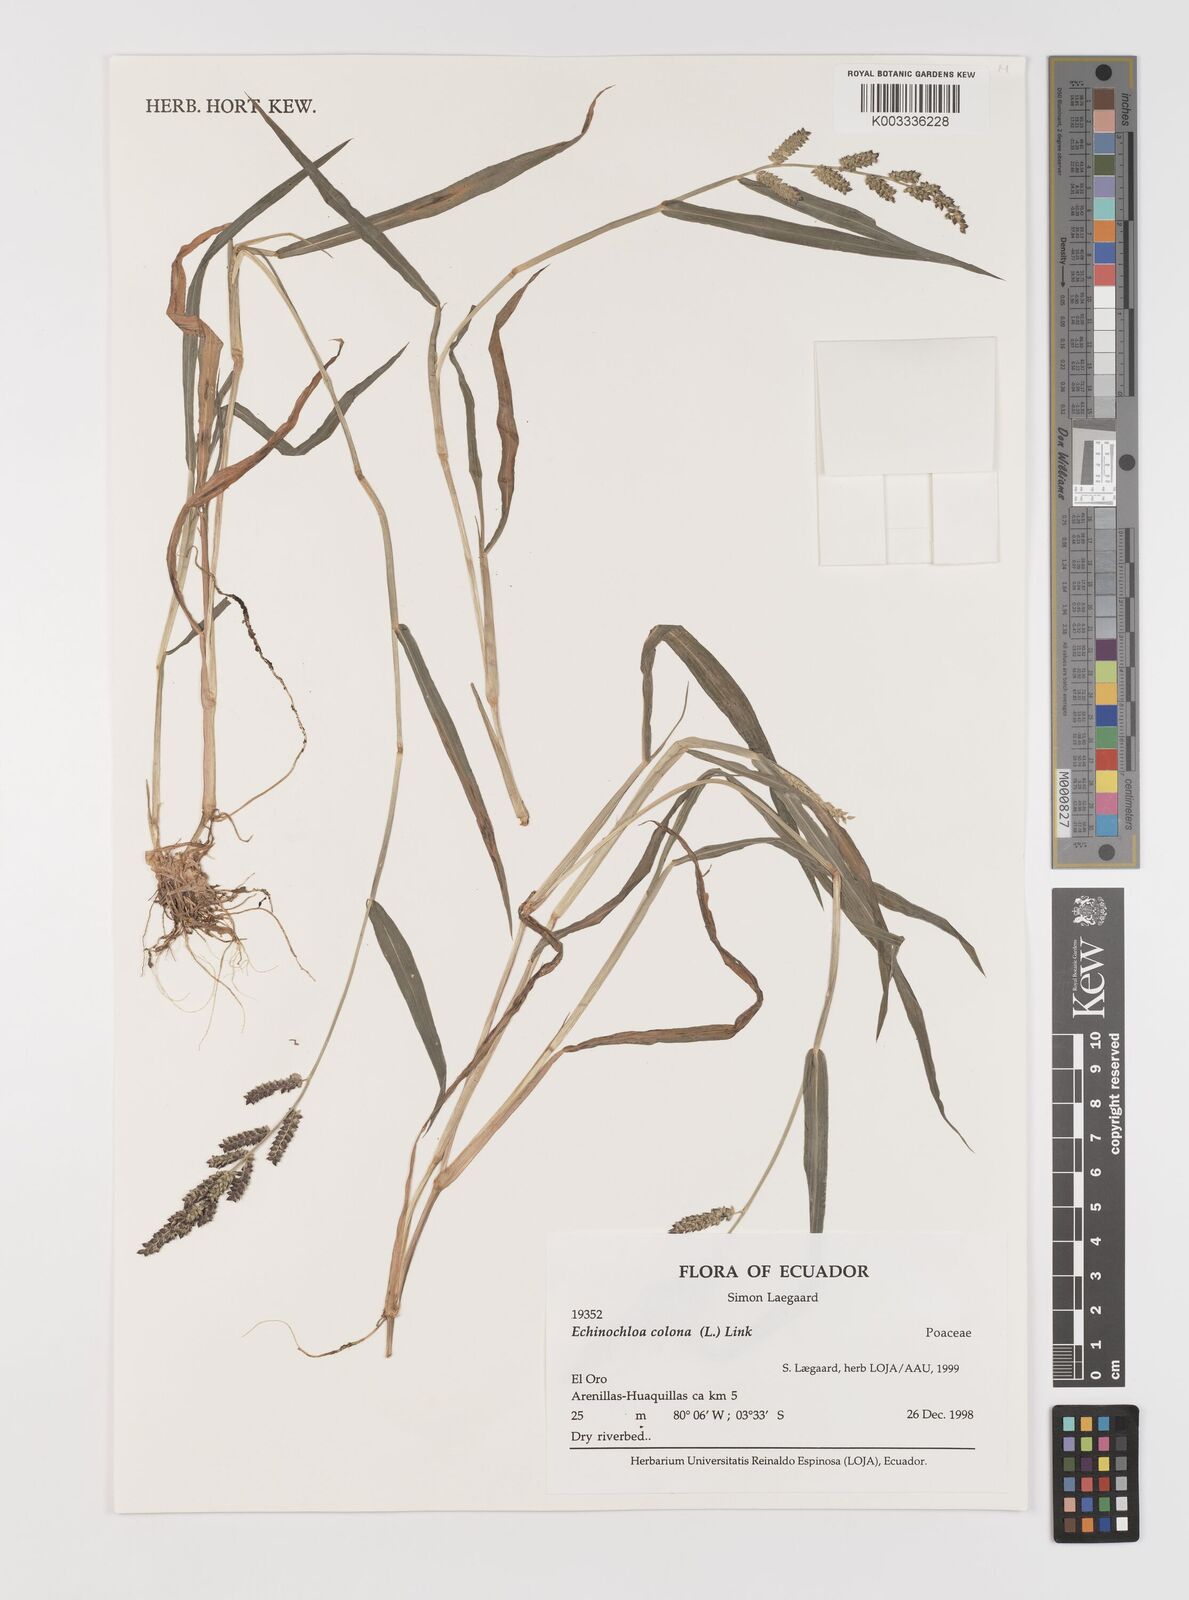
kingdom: Plantae
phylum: Tracheophyta
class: Liliopsida
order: Poales
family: Poaceae
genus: Echinochloa
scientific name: Echinochloa colonum
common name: Jungle rice
